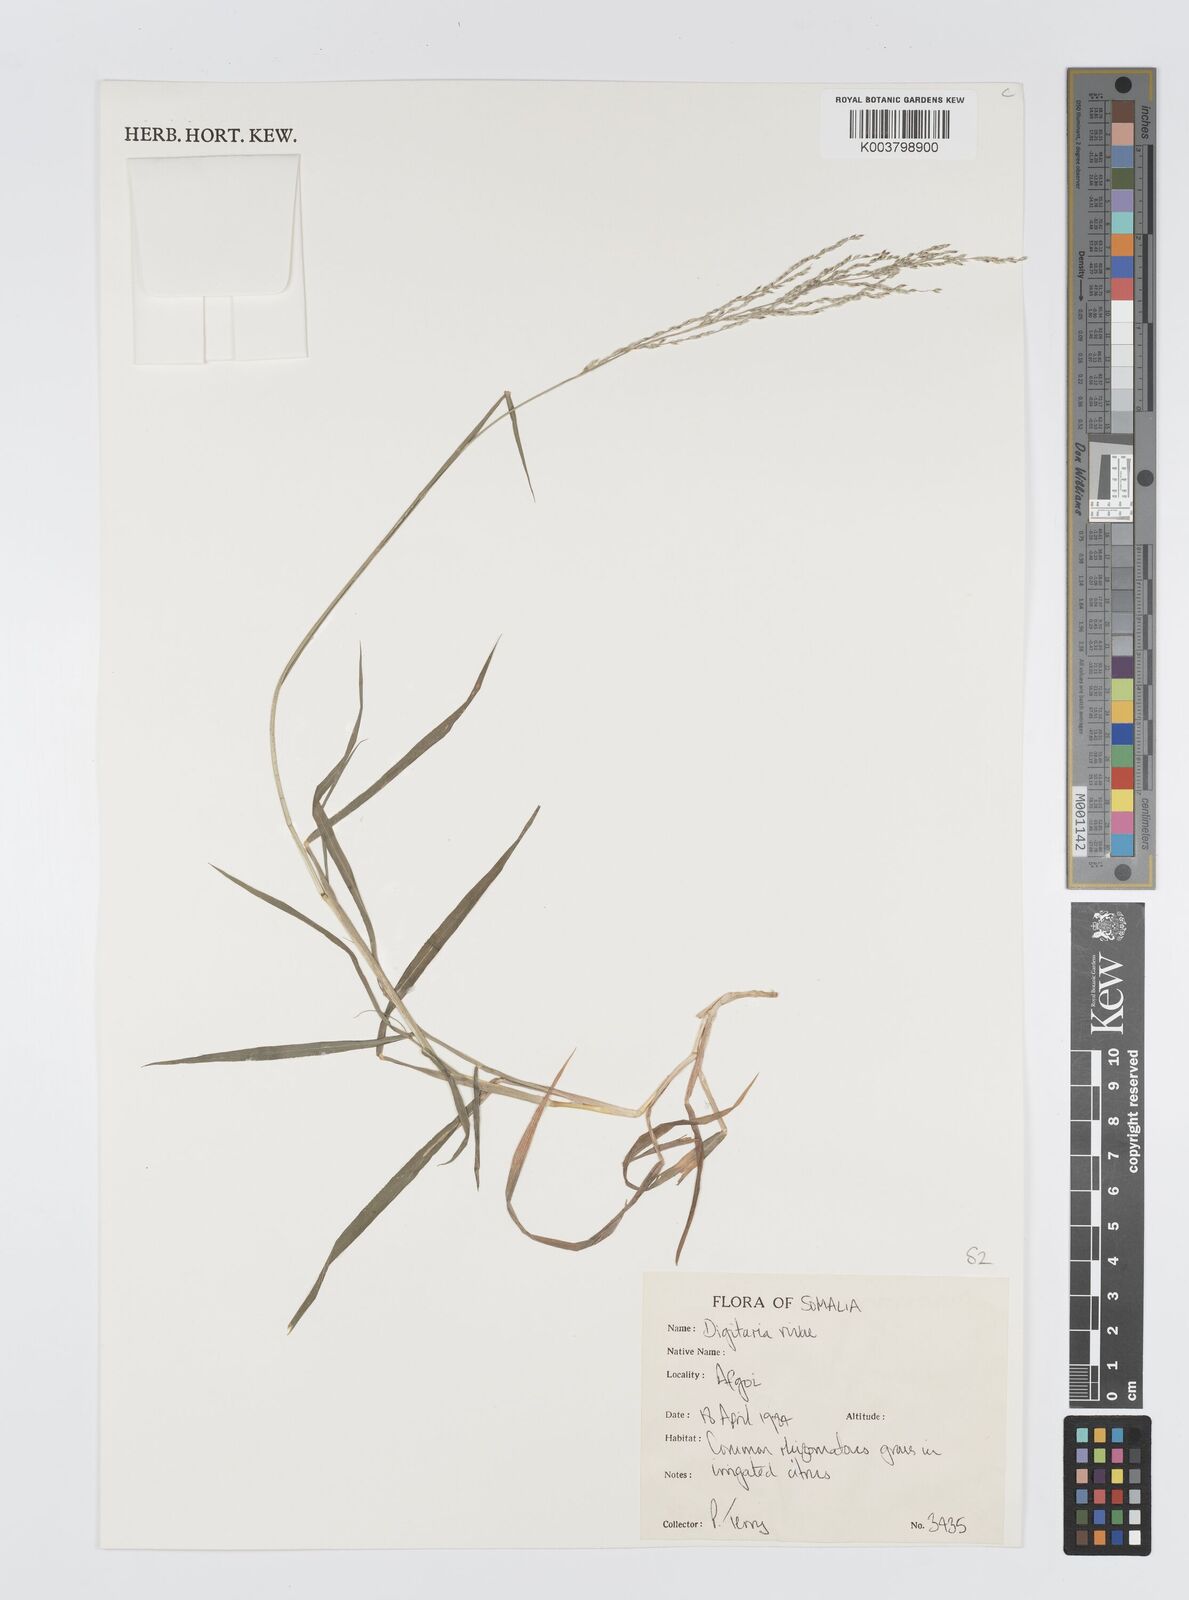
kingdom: Plantae
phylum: Tracheophyta
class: Liliopsida
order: Poales
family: Poaceae
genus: Digitaria
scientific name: Digitaria rivae
